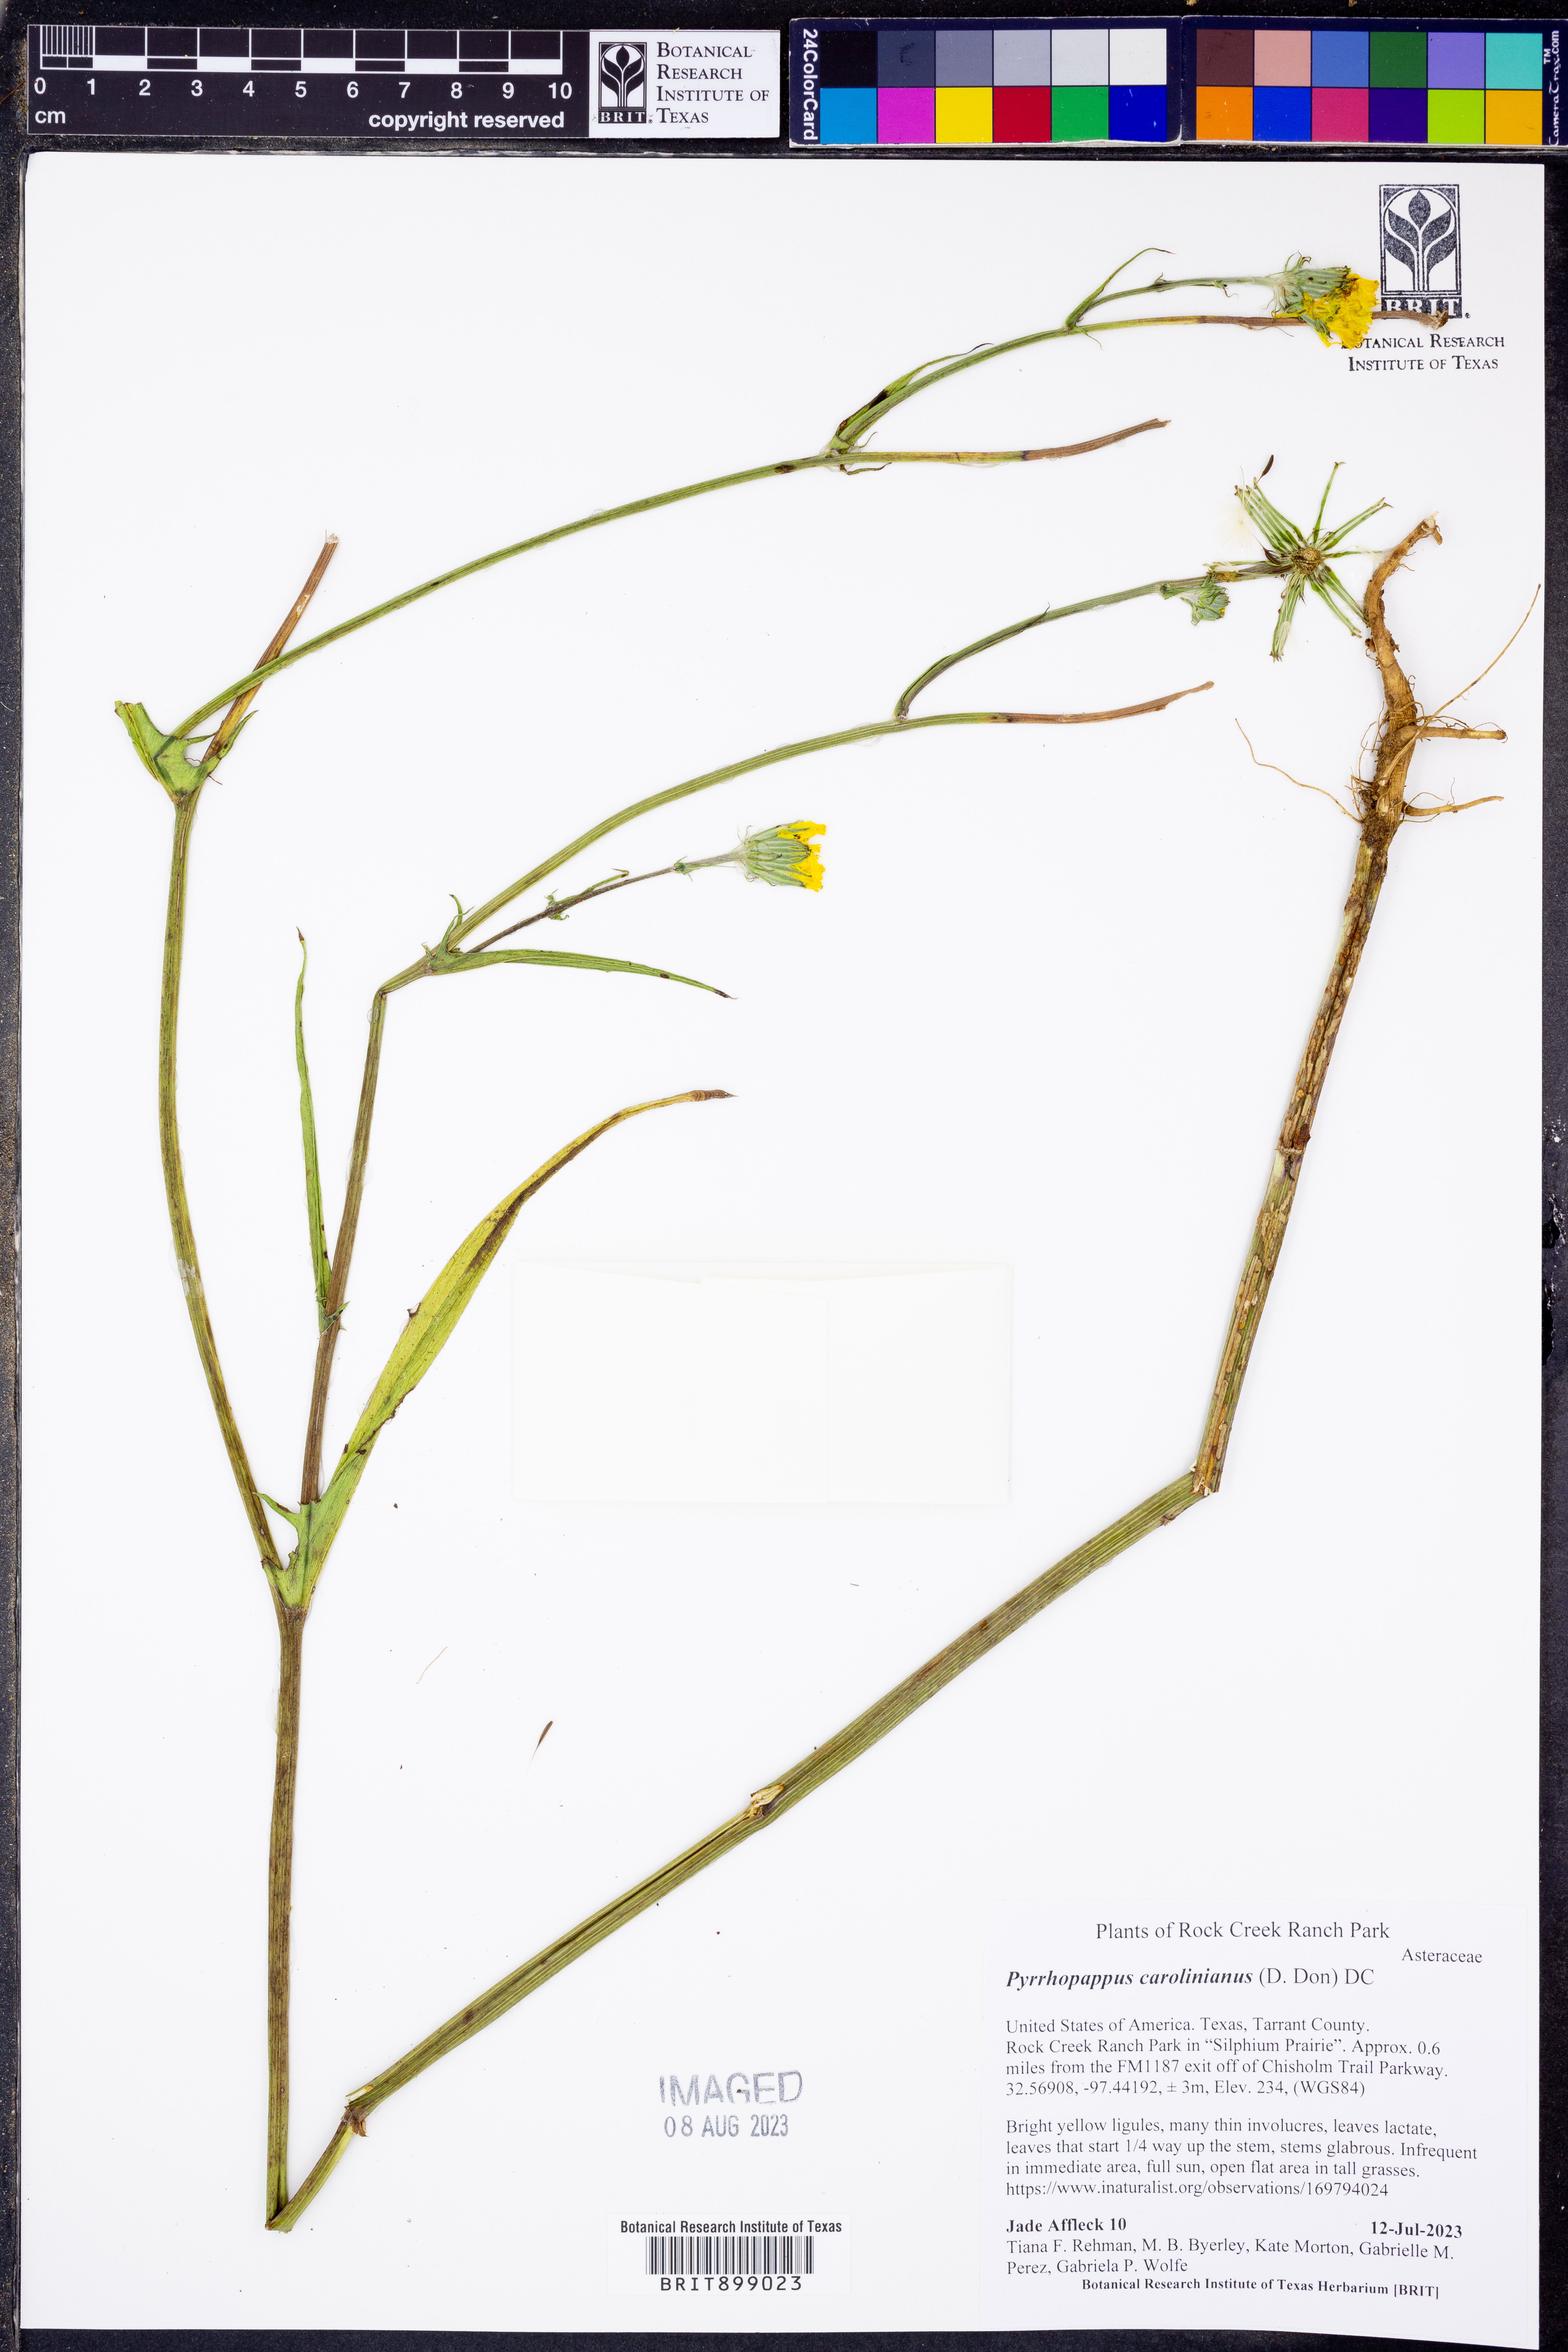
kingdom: Plantae
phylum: Tracheophyta
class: Magnoliopsida
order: Asterales
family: Asteraceae
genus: Pyrrhopappus
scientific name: Pyrrhopappus carolinianus
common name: Carolina desert-chicory
